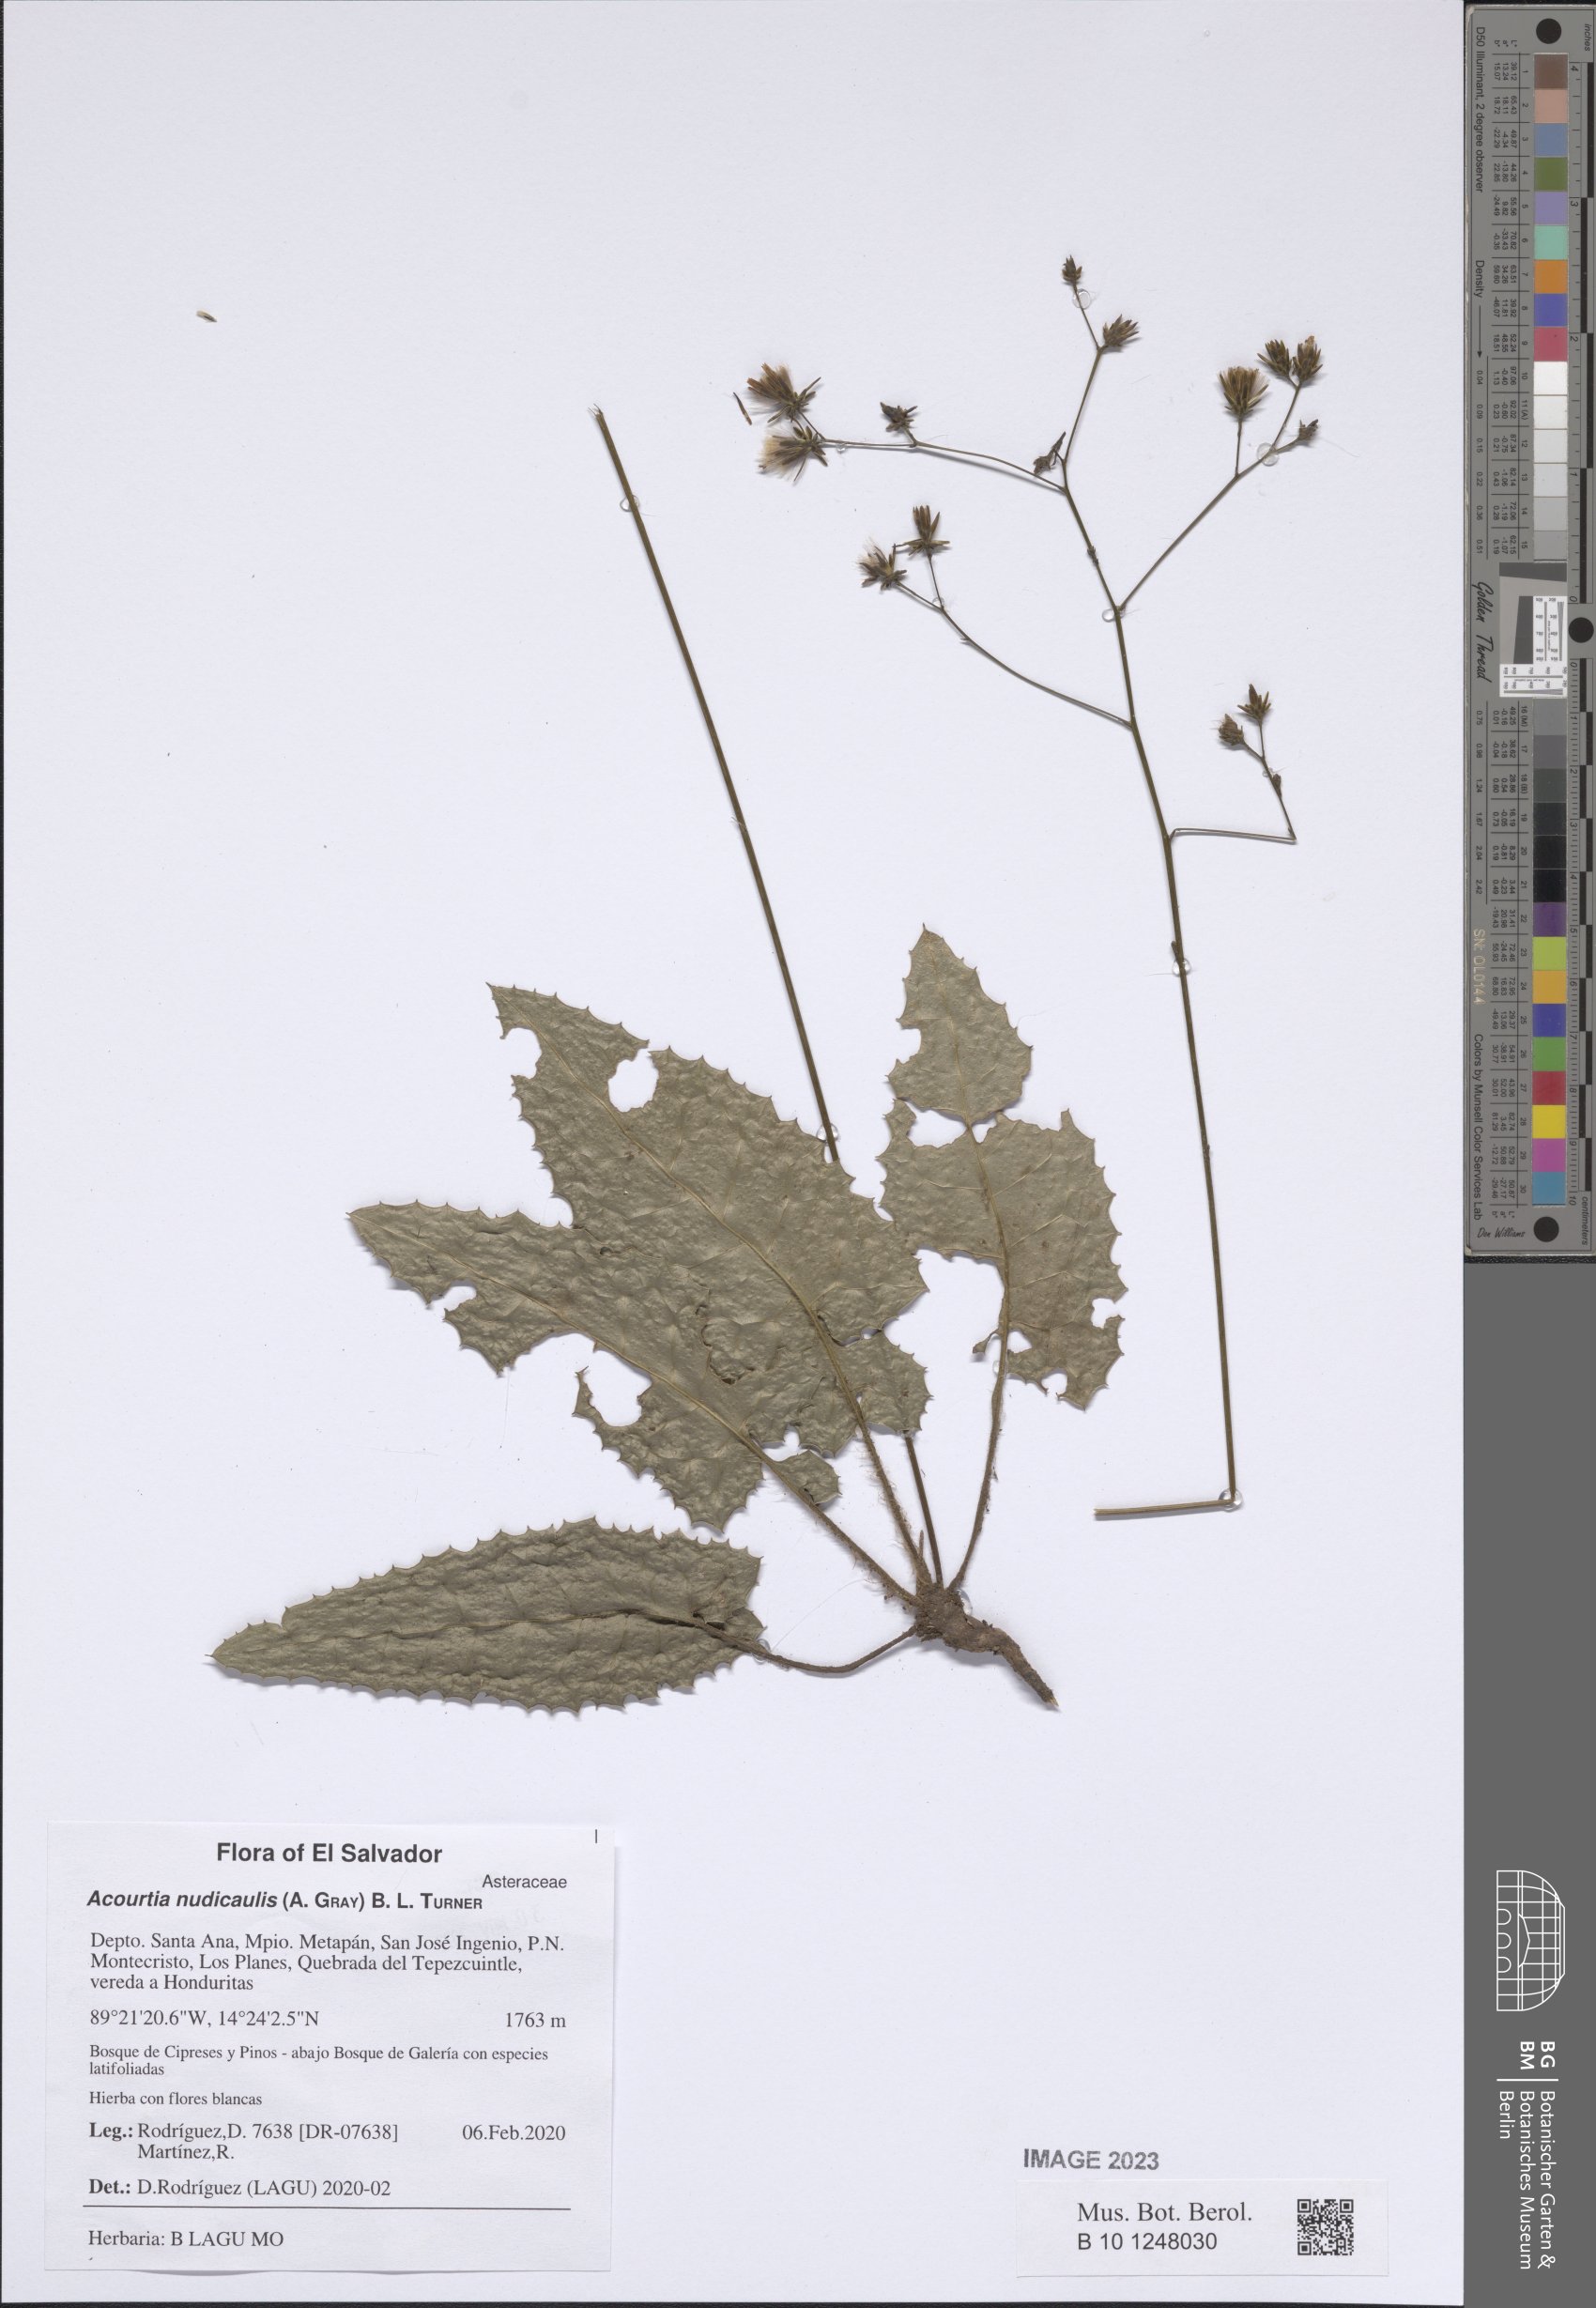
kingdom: Plantae
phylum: Tracheophyta
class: Magnoliopsida
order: Asterales
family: Asteraceae
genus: Acourtia
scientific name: Acourtia nudicaulis
